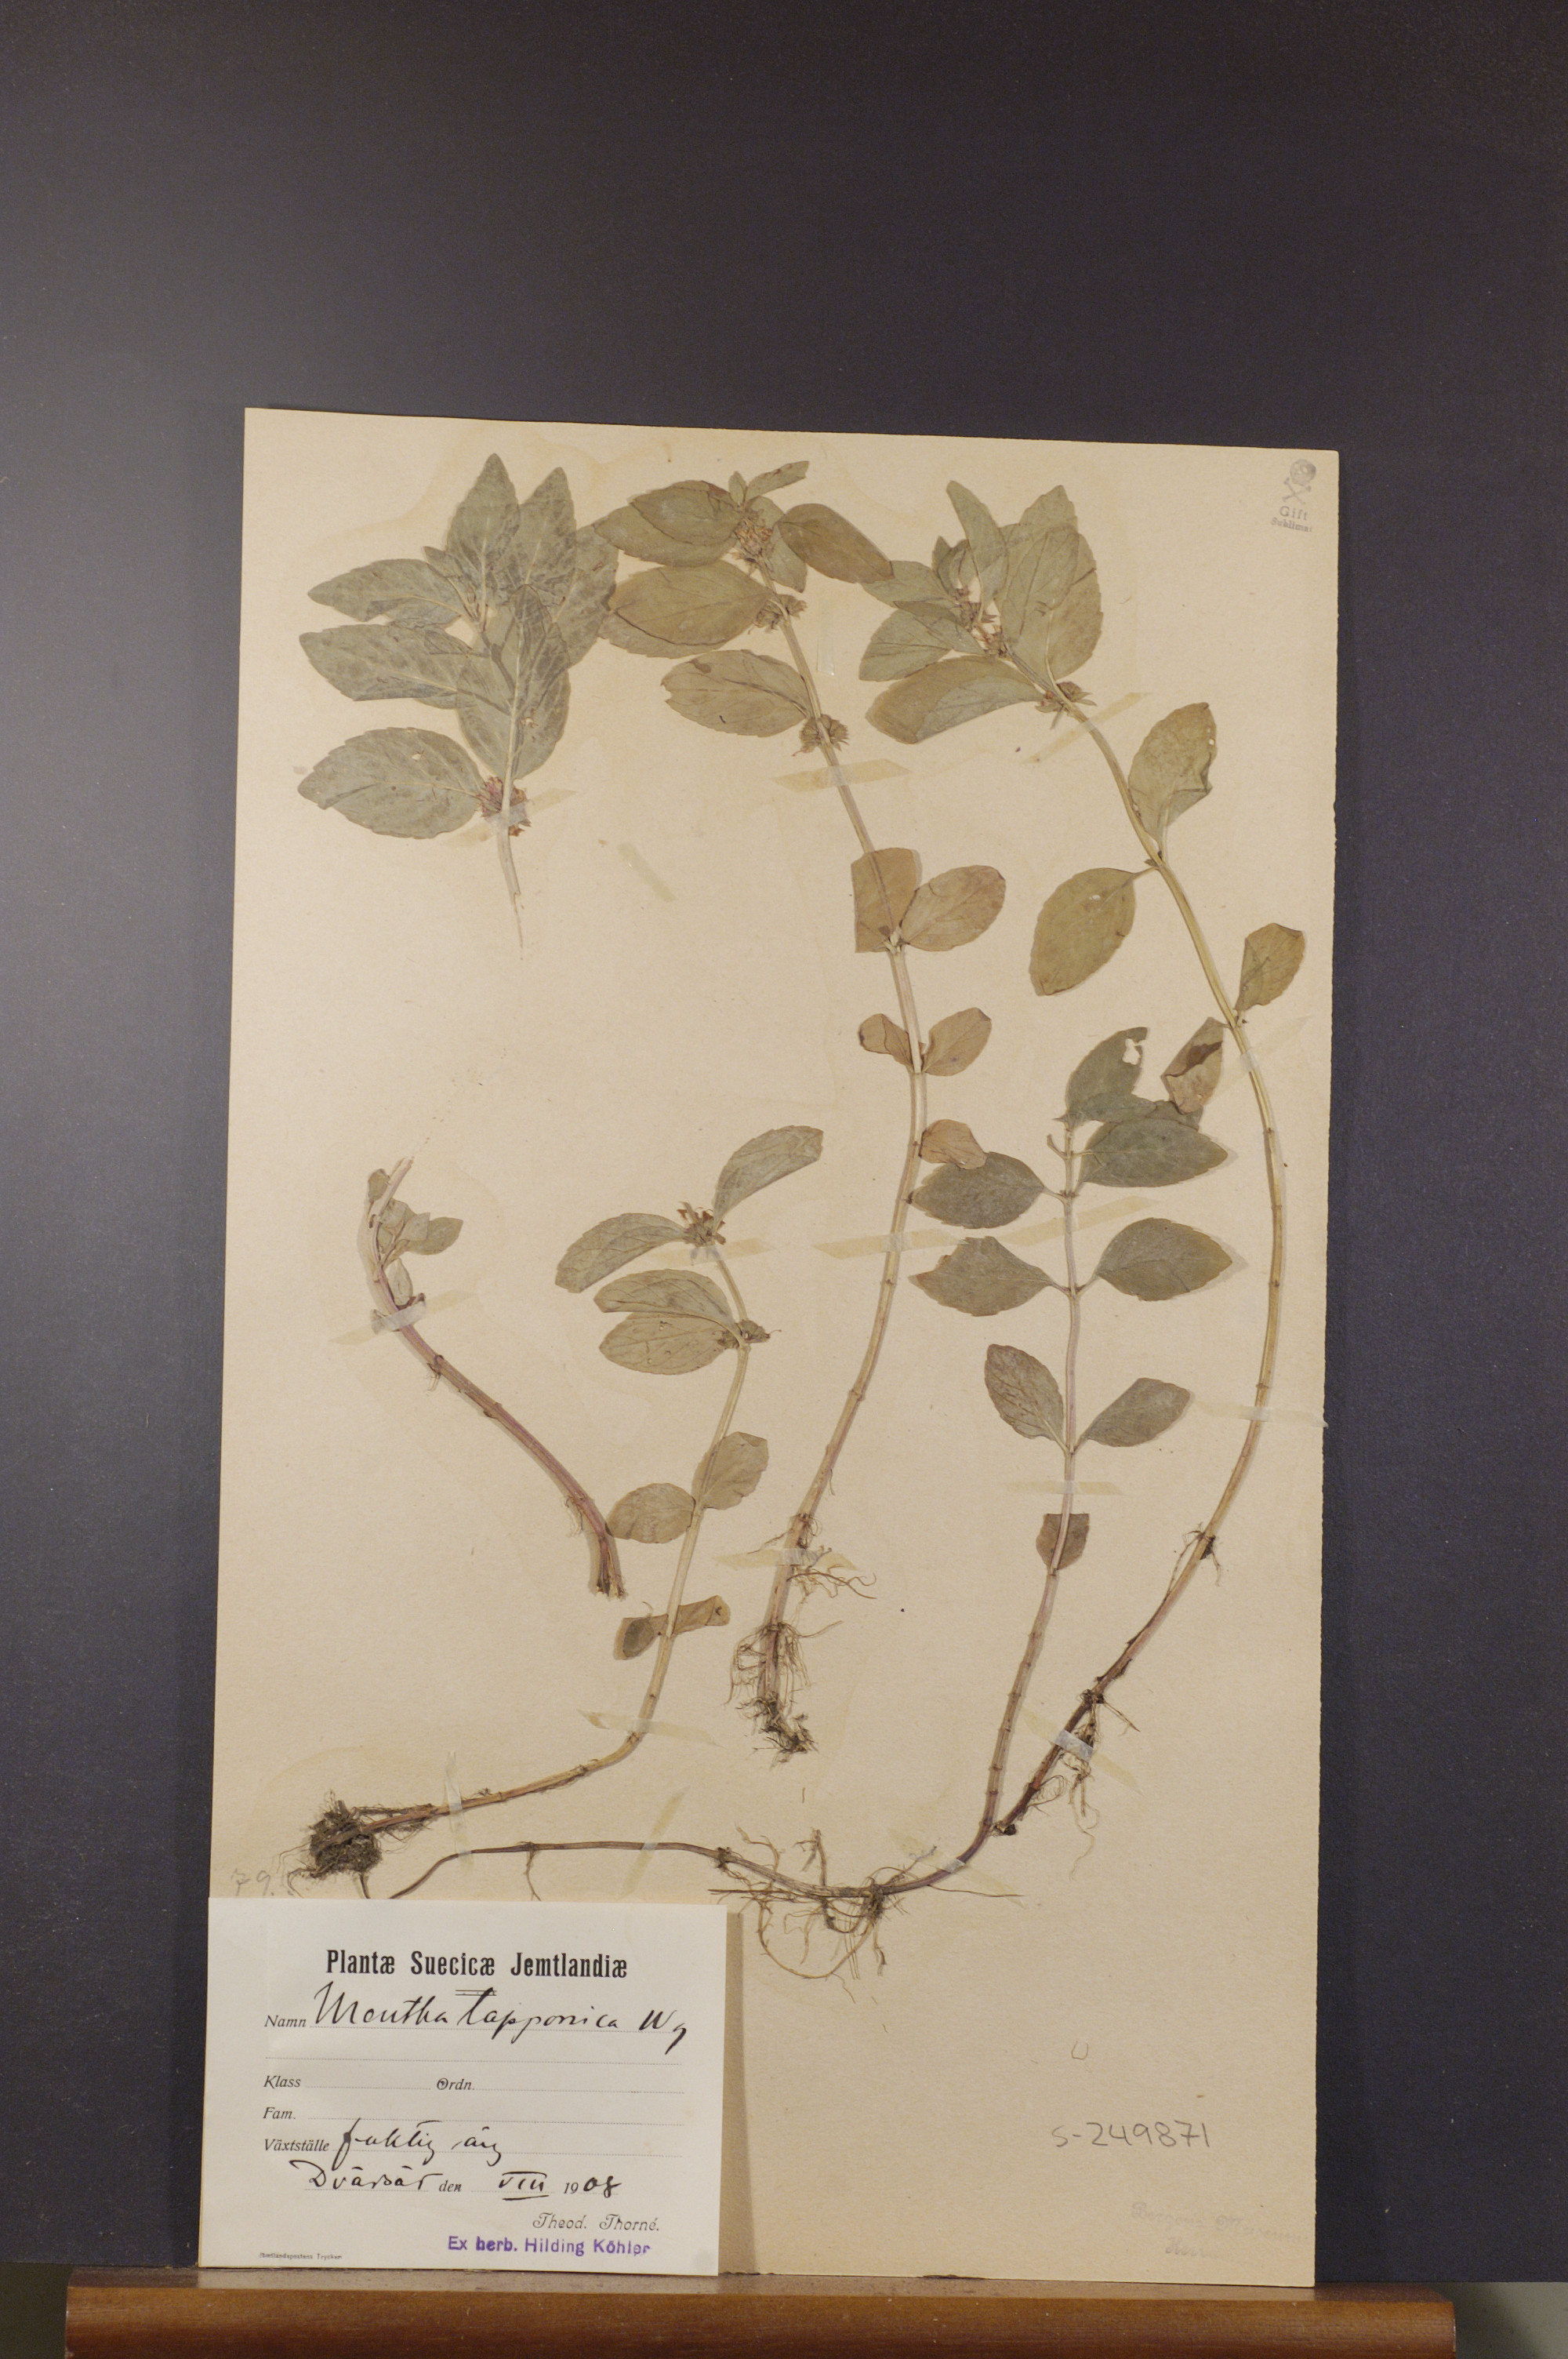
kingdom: Plantae
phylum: Tracheophyta
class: Magnoliopsida
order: Lamiales
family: Lamiaceae
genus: Mentha
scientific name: Mentha arvensis
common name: Corn mint
